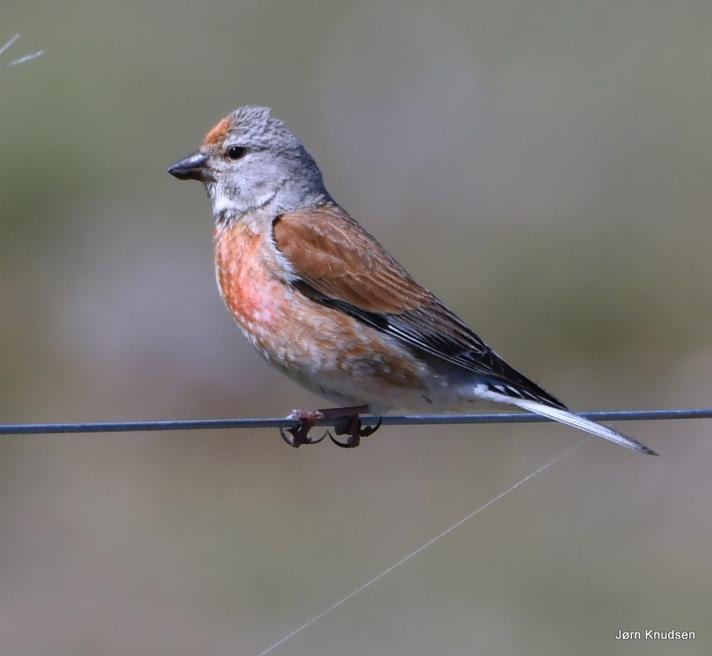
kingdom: Animalia
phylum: Chordata
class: Aves
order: Passeriformes
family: Fringillidae
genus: Linaria
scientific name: Linaria cannabina
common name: Tornirisk
